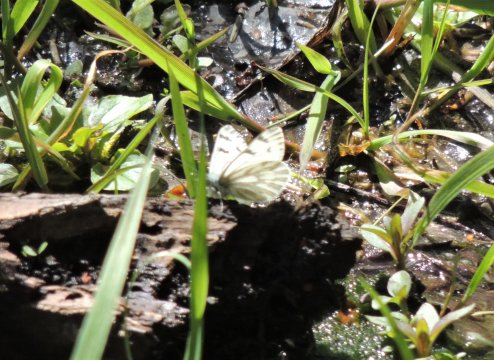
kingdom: Animalia
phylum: Arthropoda
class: Insecta
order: Lepidoptera
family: Pieridae
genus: Pontia
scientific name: Pontia sisymbrii
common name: Spring White
